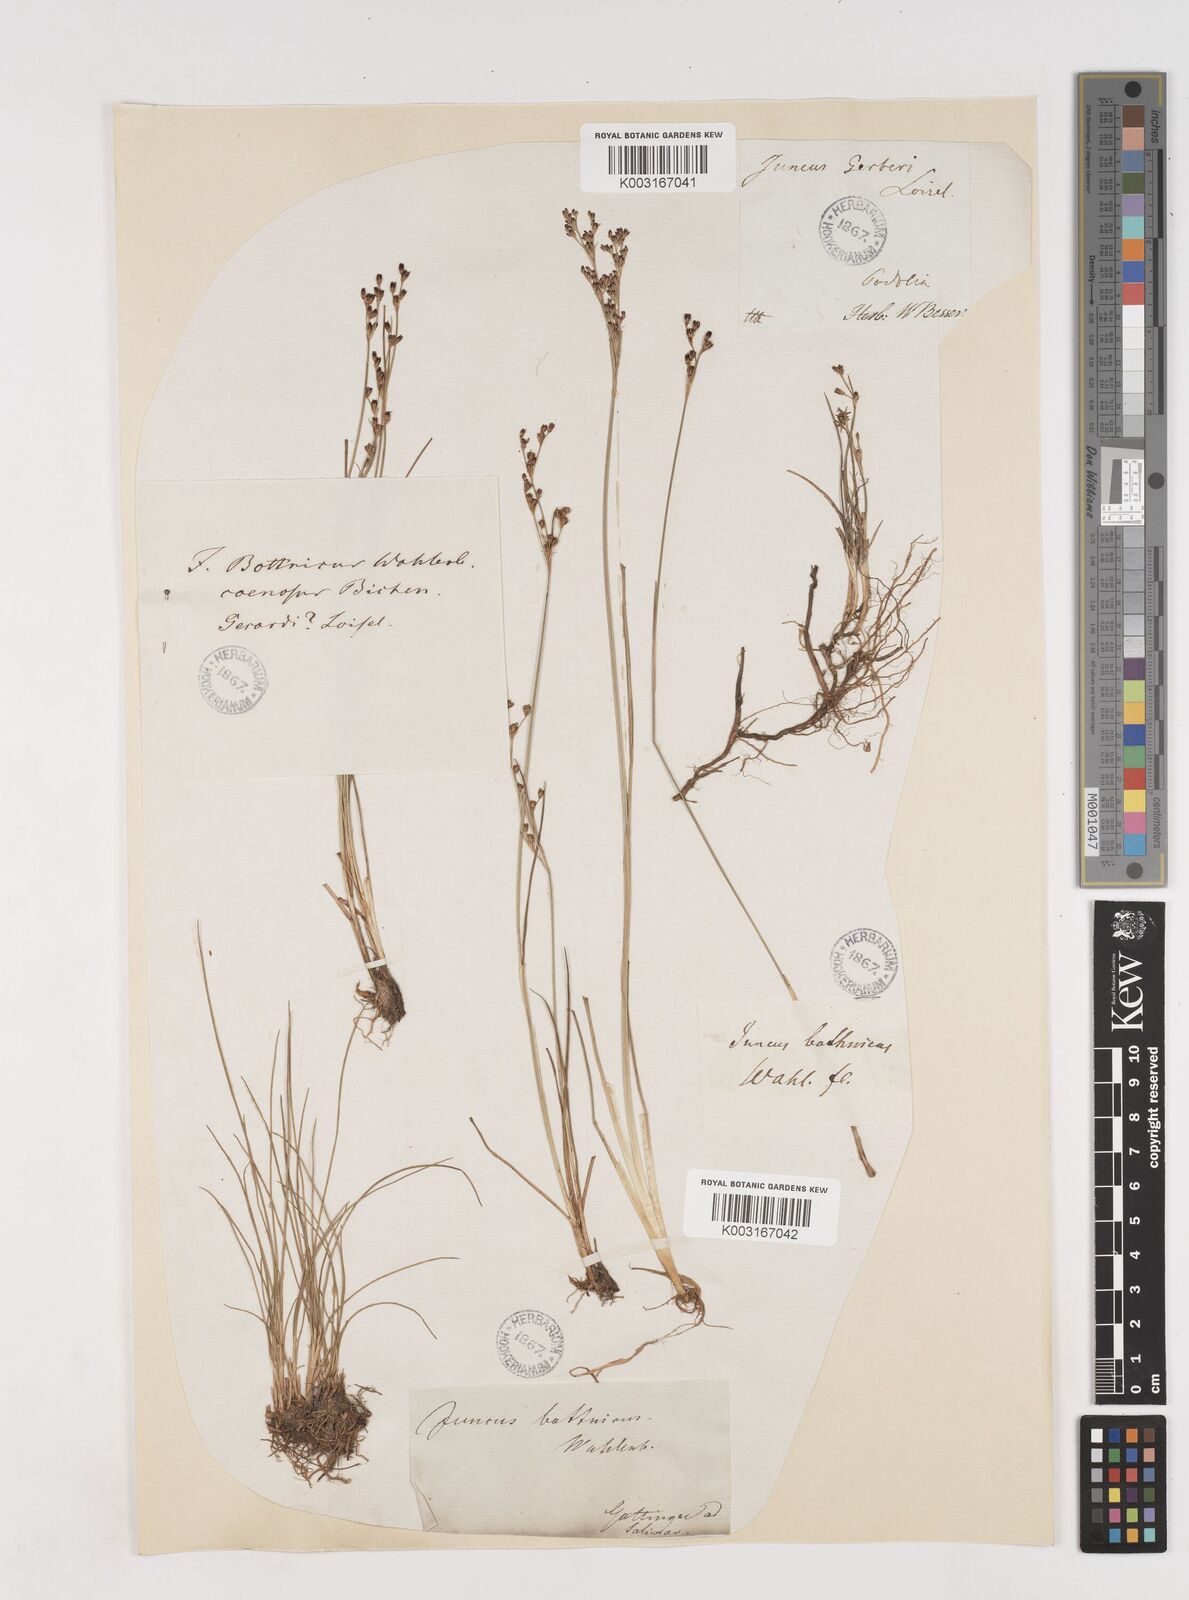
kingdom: Plantae
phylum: Tracheophyta
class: Liliopsida
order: Poales
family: Juncaceae
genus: Juncus
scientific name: Juncus gerardi
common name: Saltmarsh rush
